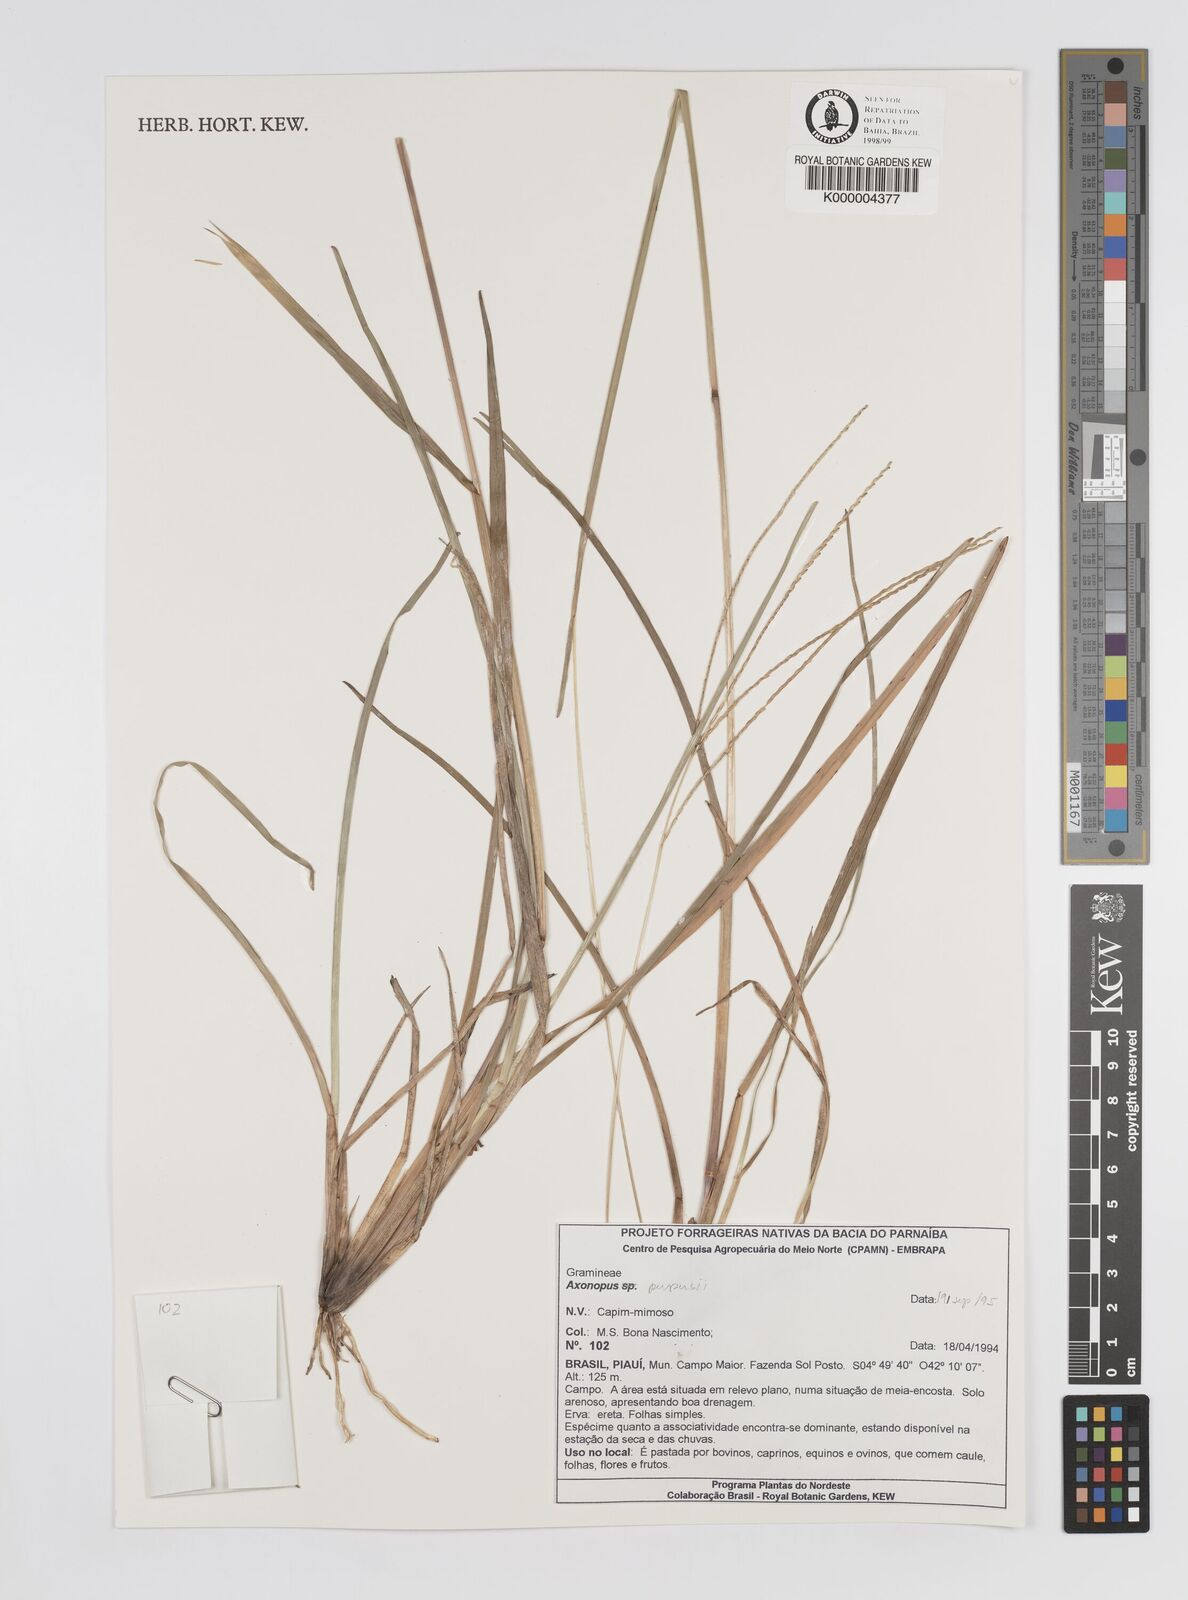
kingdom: Plantae
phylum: Tracheophyta
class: Liliopsida
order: Poales
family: Poaceae
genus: Axonopus
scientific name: Axonopus purpusii
